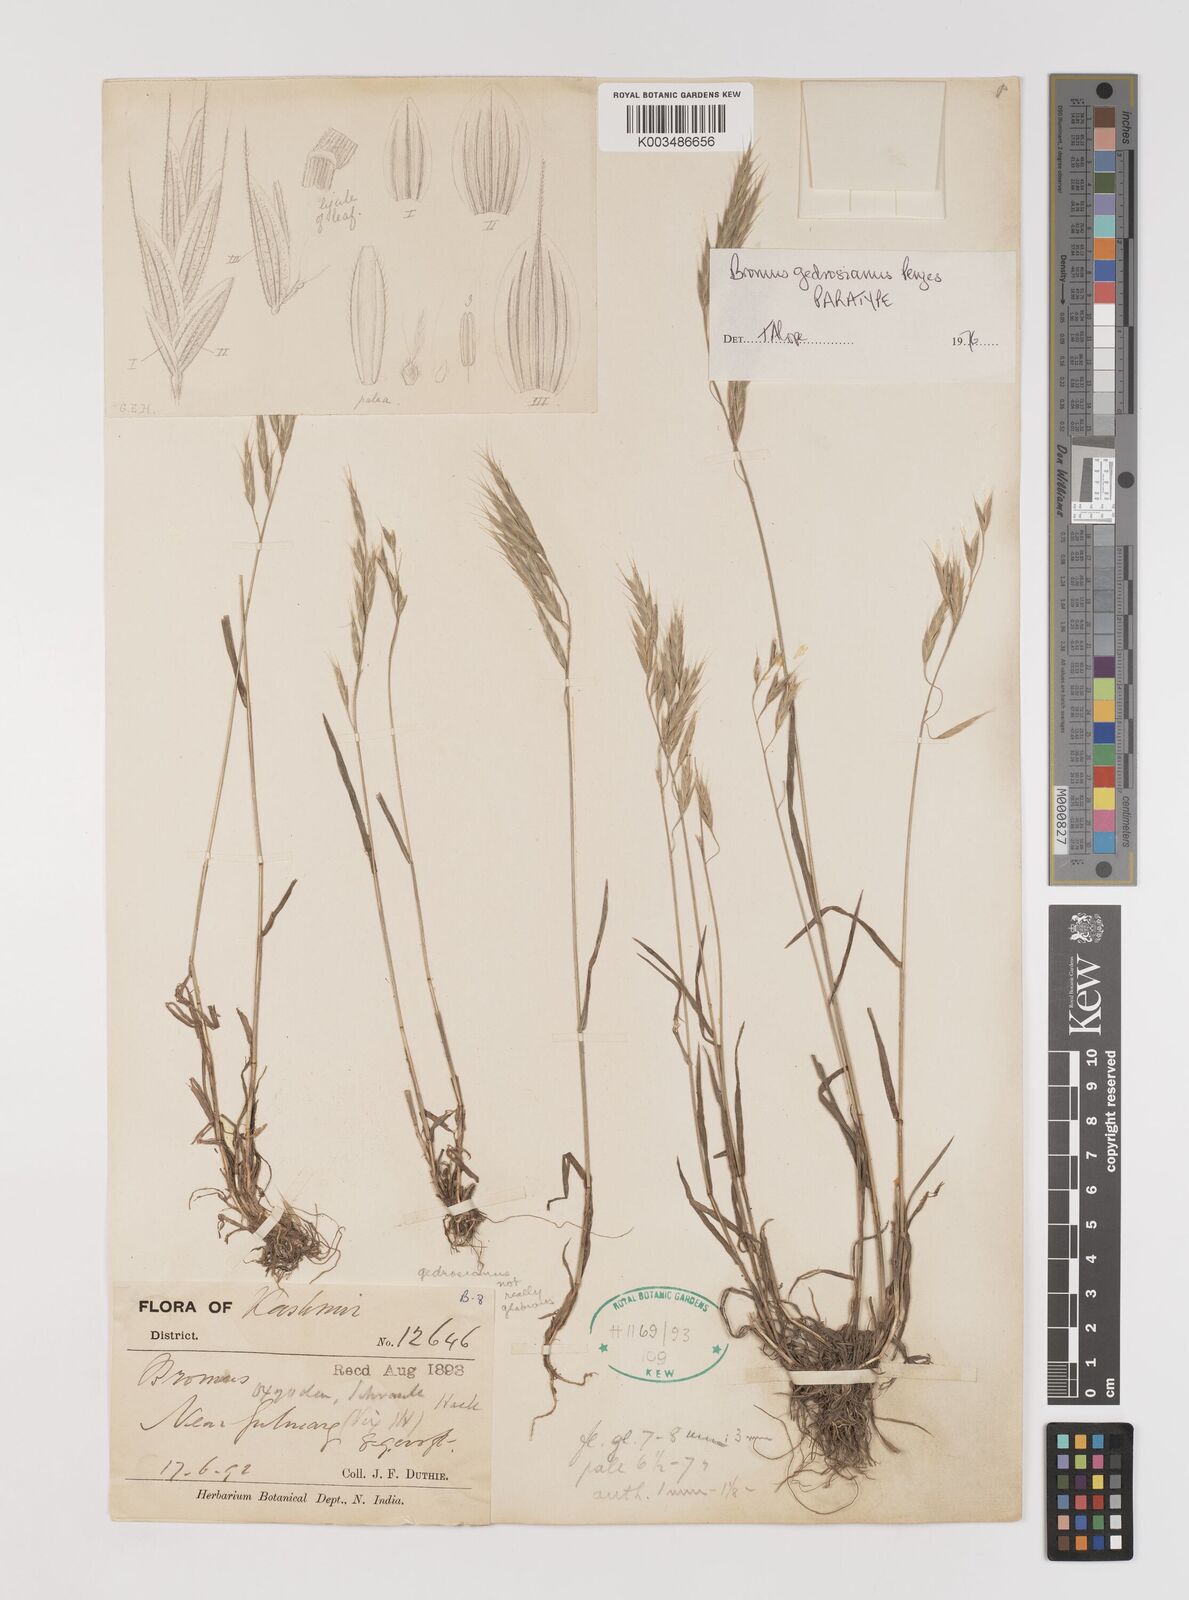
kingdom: Plantae
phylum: Tracheophyta
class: Liliopsida
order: Poales
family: Poaceae
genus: Bromus
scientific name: Bromus pectinatus
